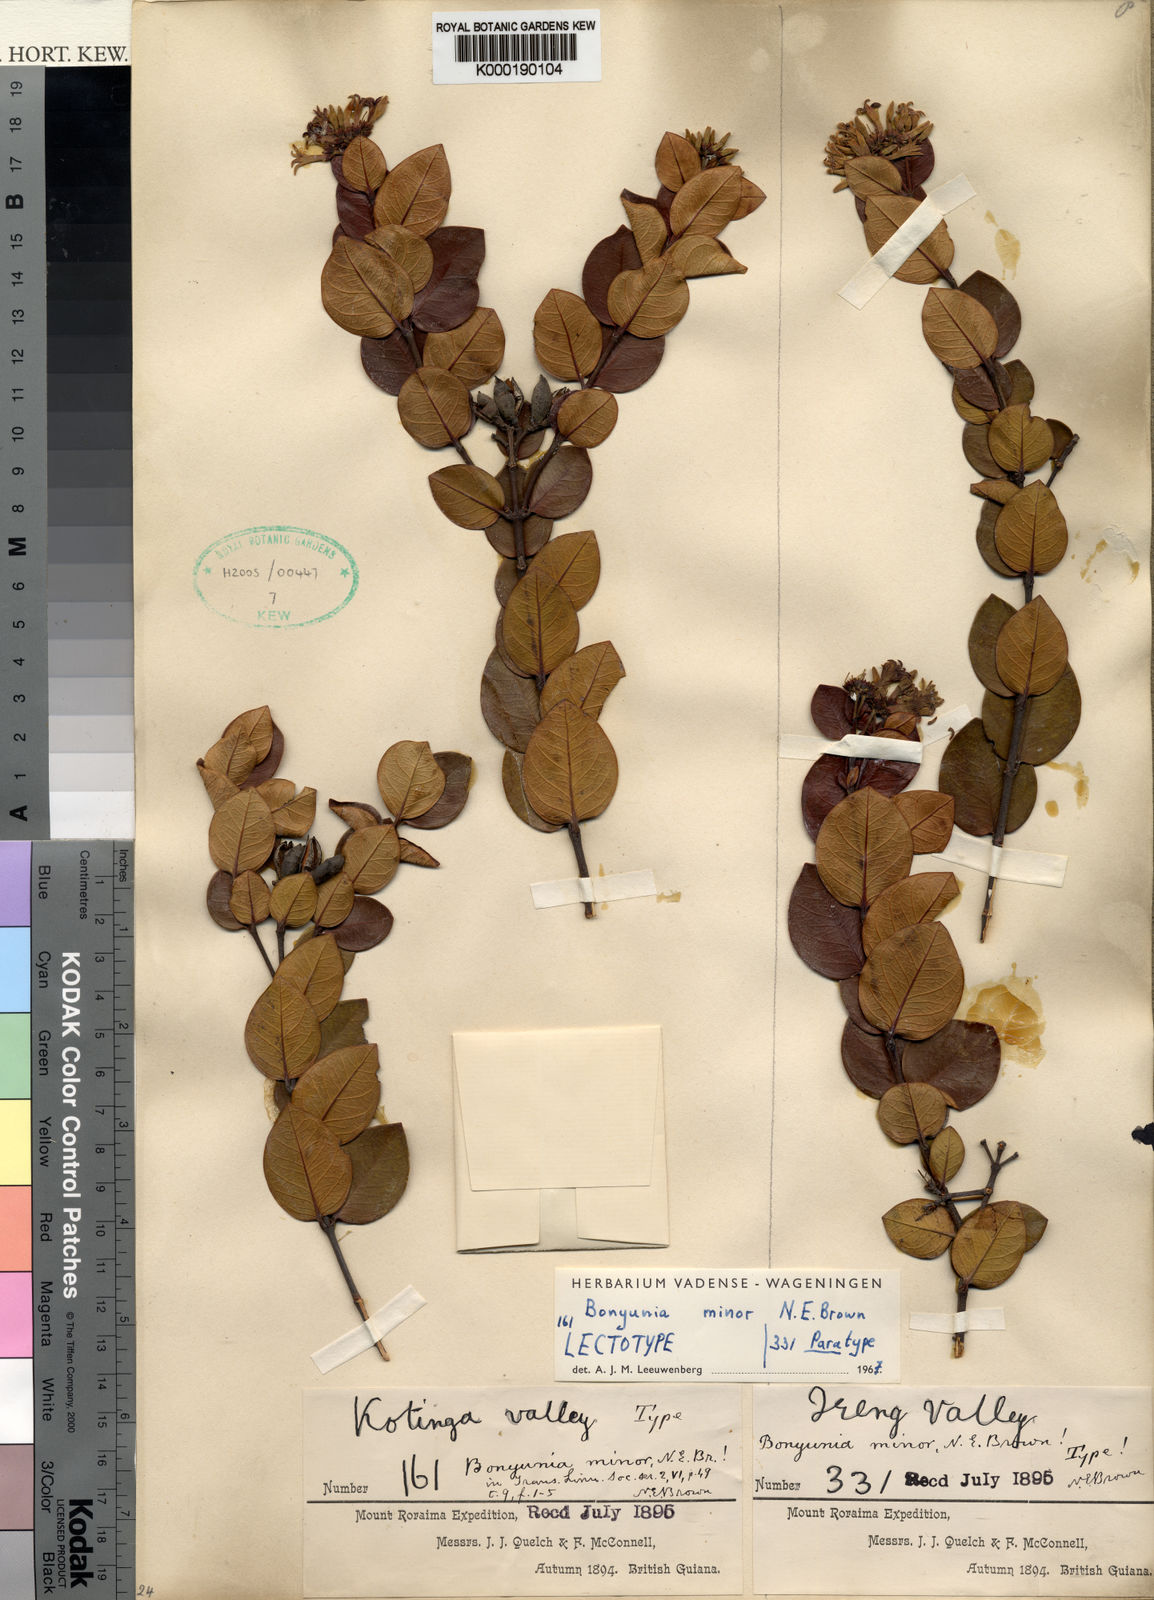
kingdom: Plantae
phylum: Tracheophyta
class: Magnoliopsida
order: Gentianales
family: Loganiaceae
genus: Bonyunia
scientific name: Bonyunia minor
